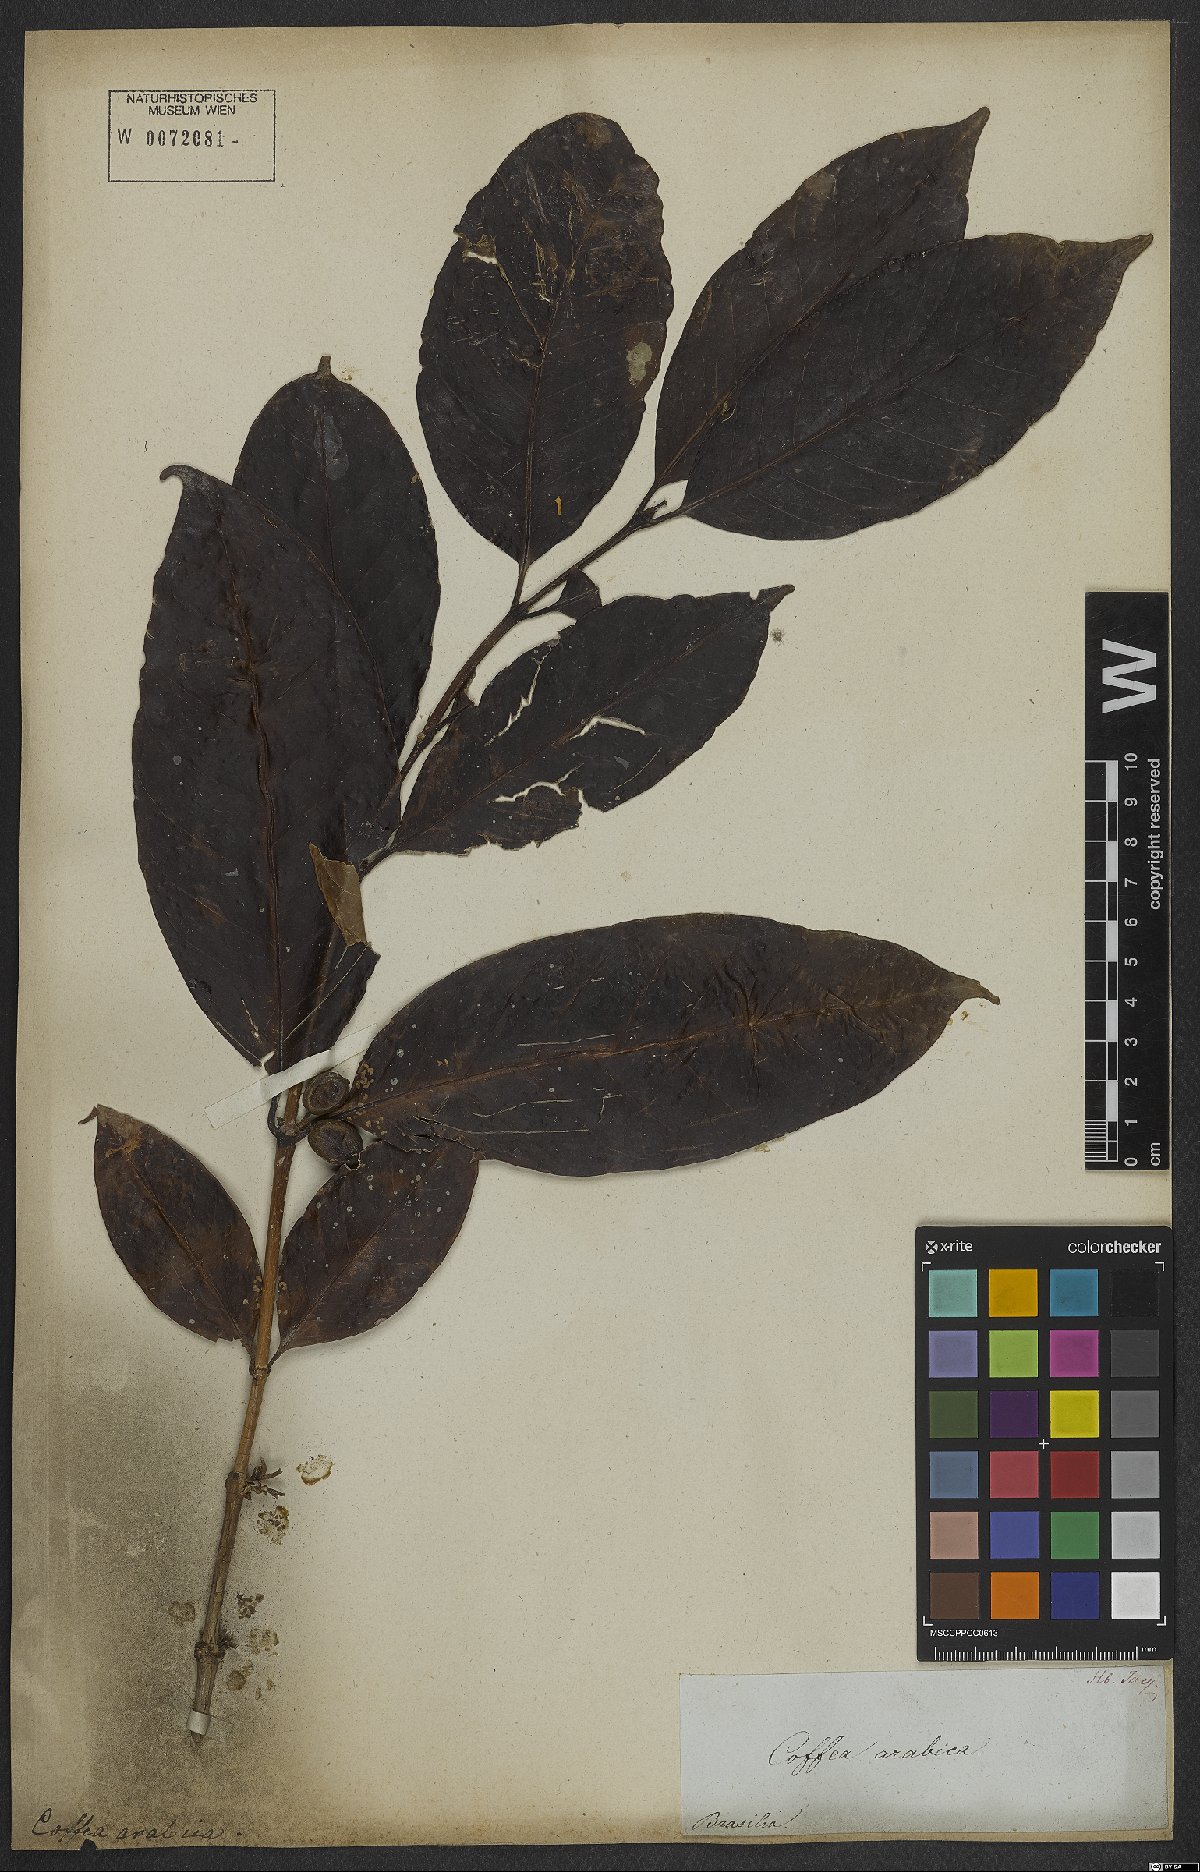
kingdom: Plantae
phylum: Tracheophyta
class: Magnoliopsida
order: Gentianales
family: Rubiaceae
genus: Coffea
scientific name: Coffea arabica
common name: Coffee
